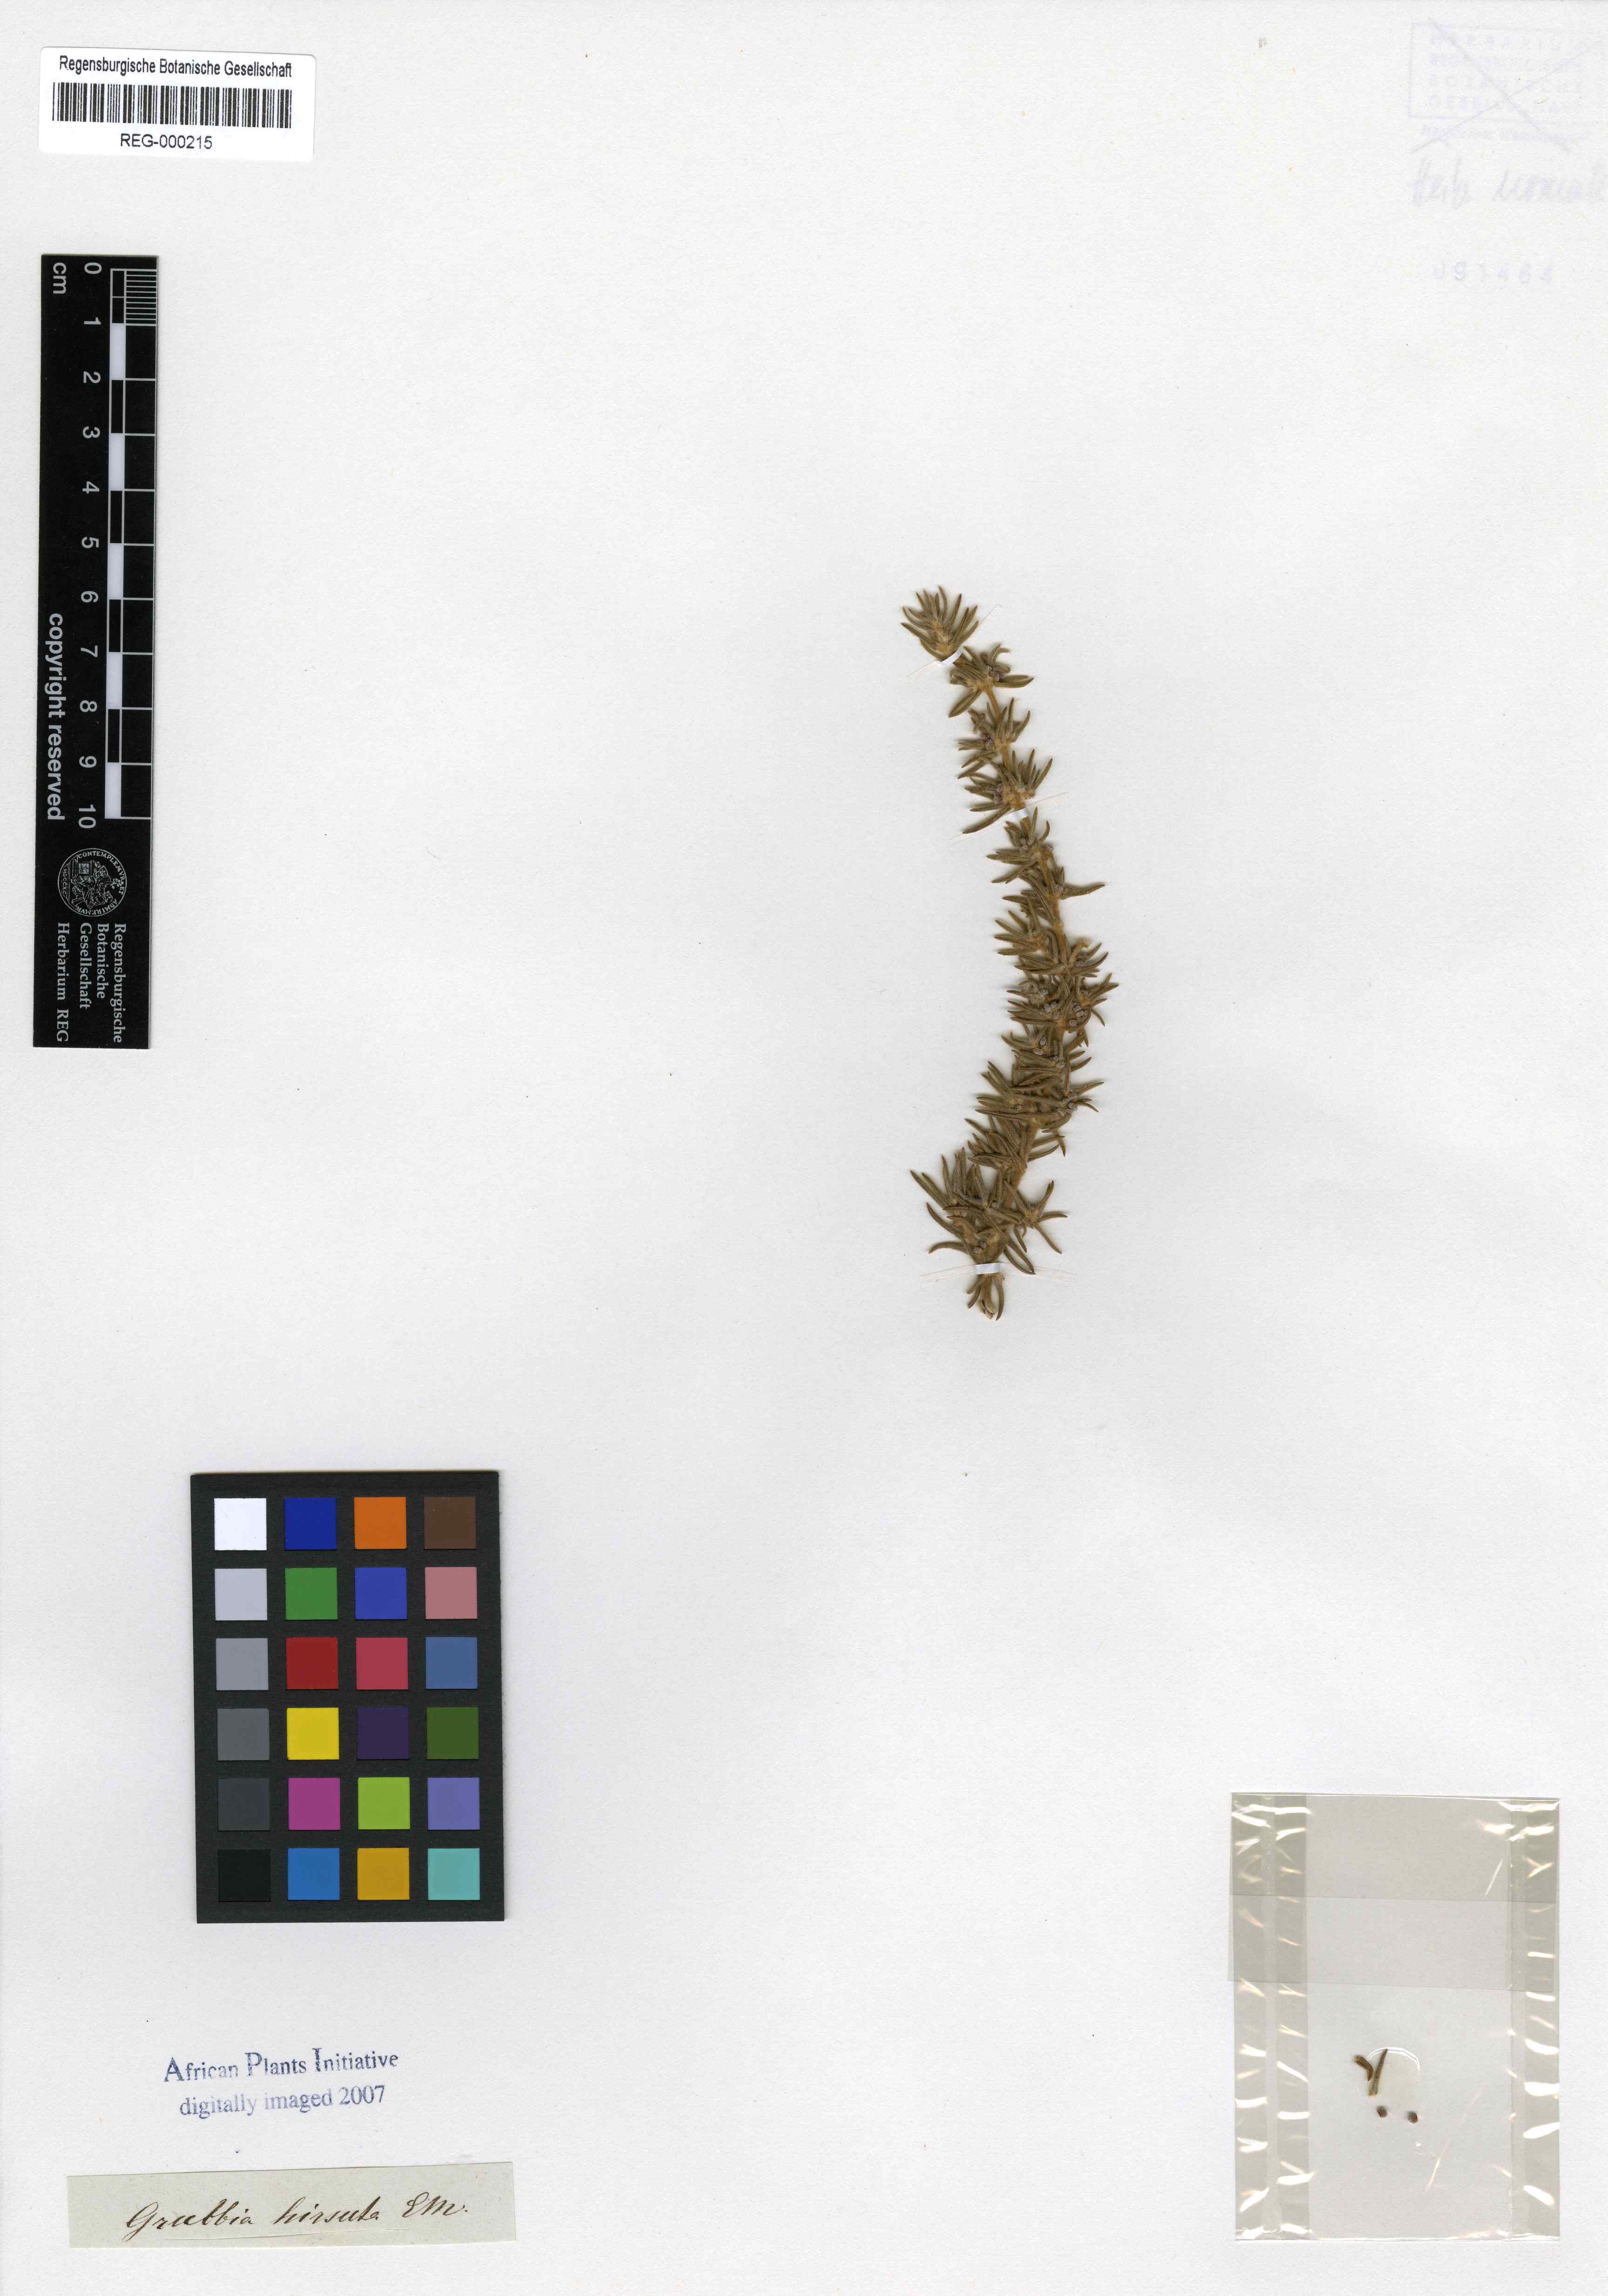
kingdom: Plantae
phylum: Tracheophyta
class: Magnoliopsida
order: Cornales
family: Grubbiaceae
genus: Grubbia
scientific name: Grubbia rosmarinifolia
